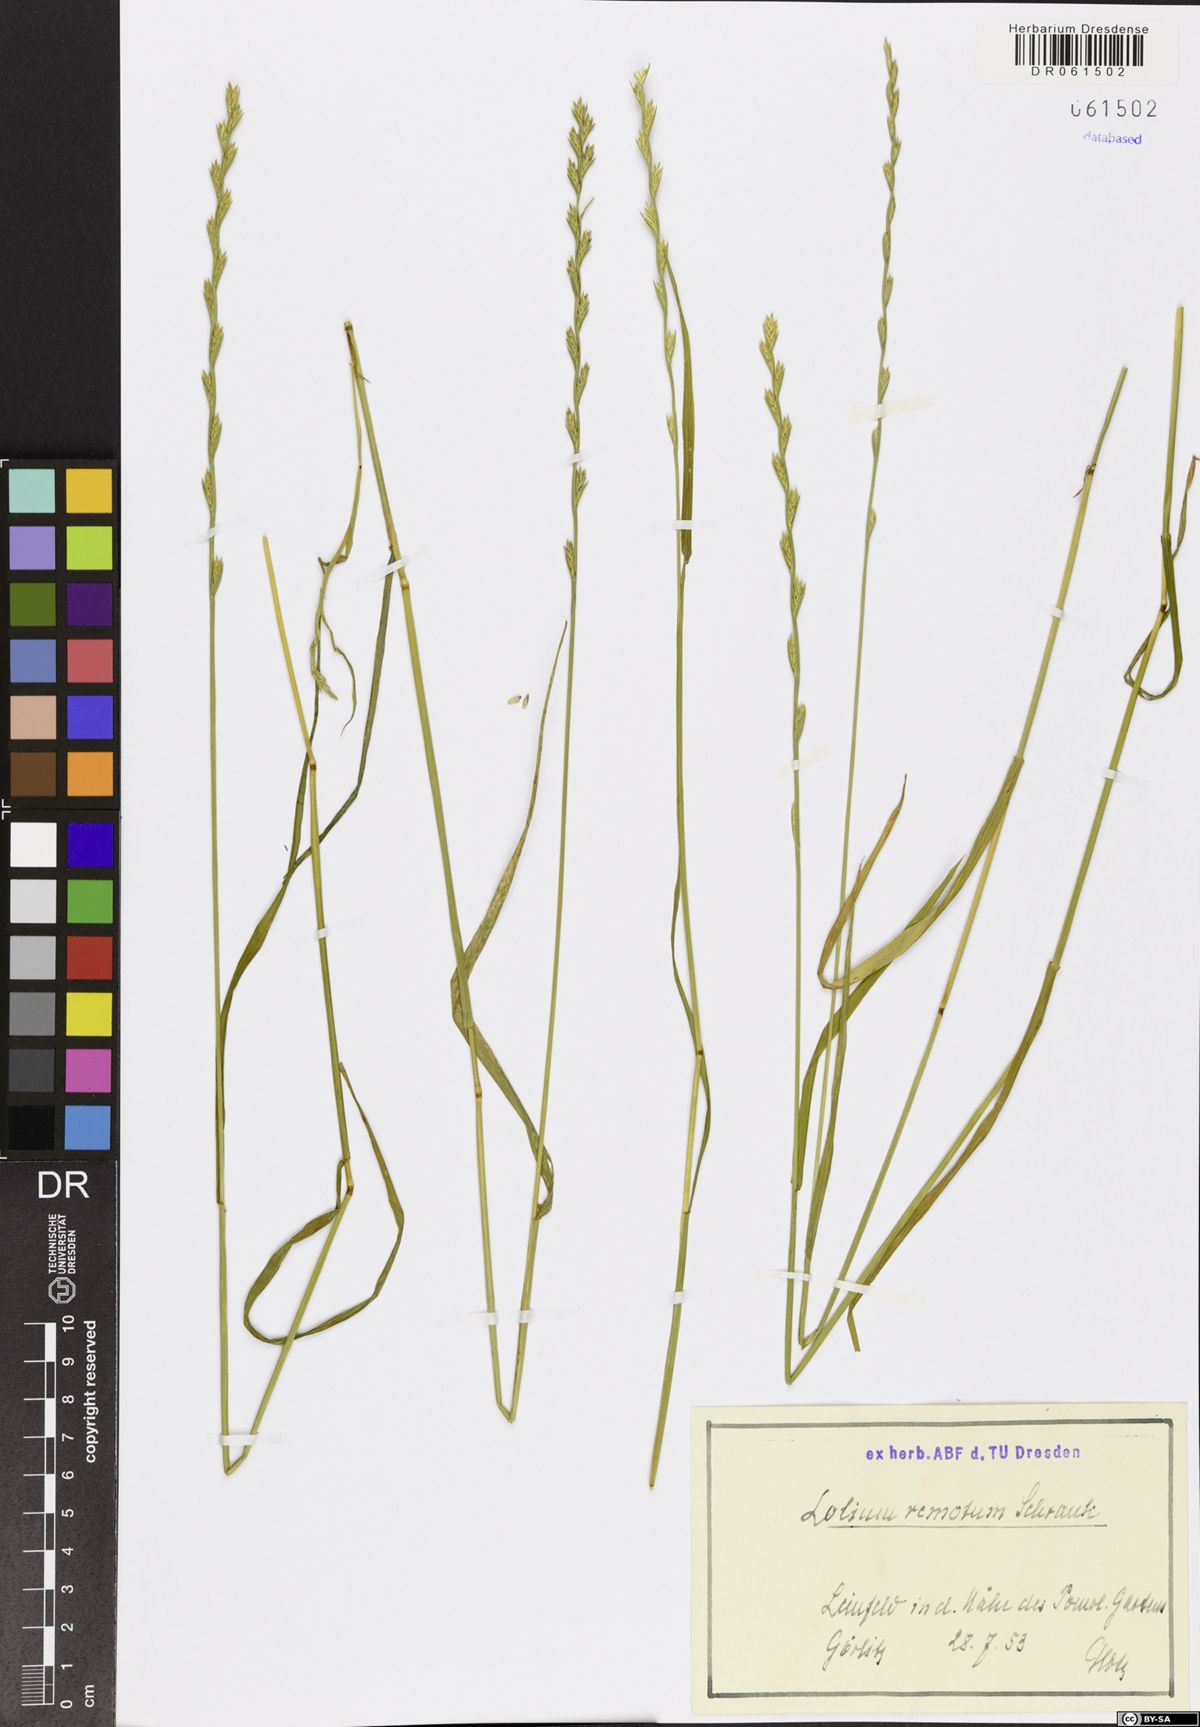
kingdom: Plantae
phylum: Tracheophyta
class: Liliopsida
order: Poales
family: Poaceae
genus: Lolium
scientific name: Lolium remotum
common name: Flaxfield rye-grass
